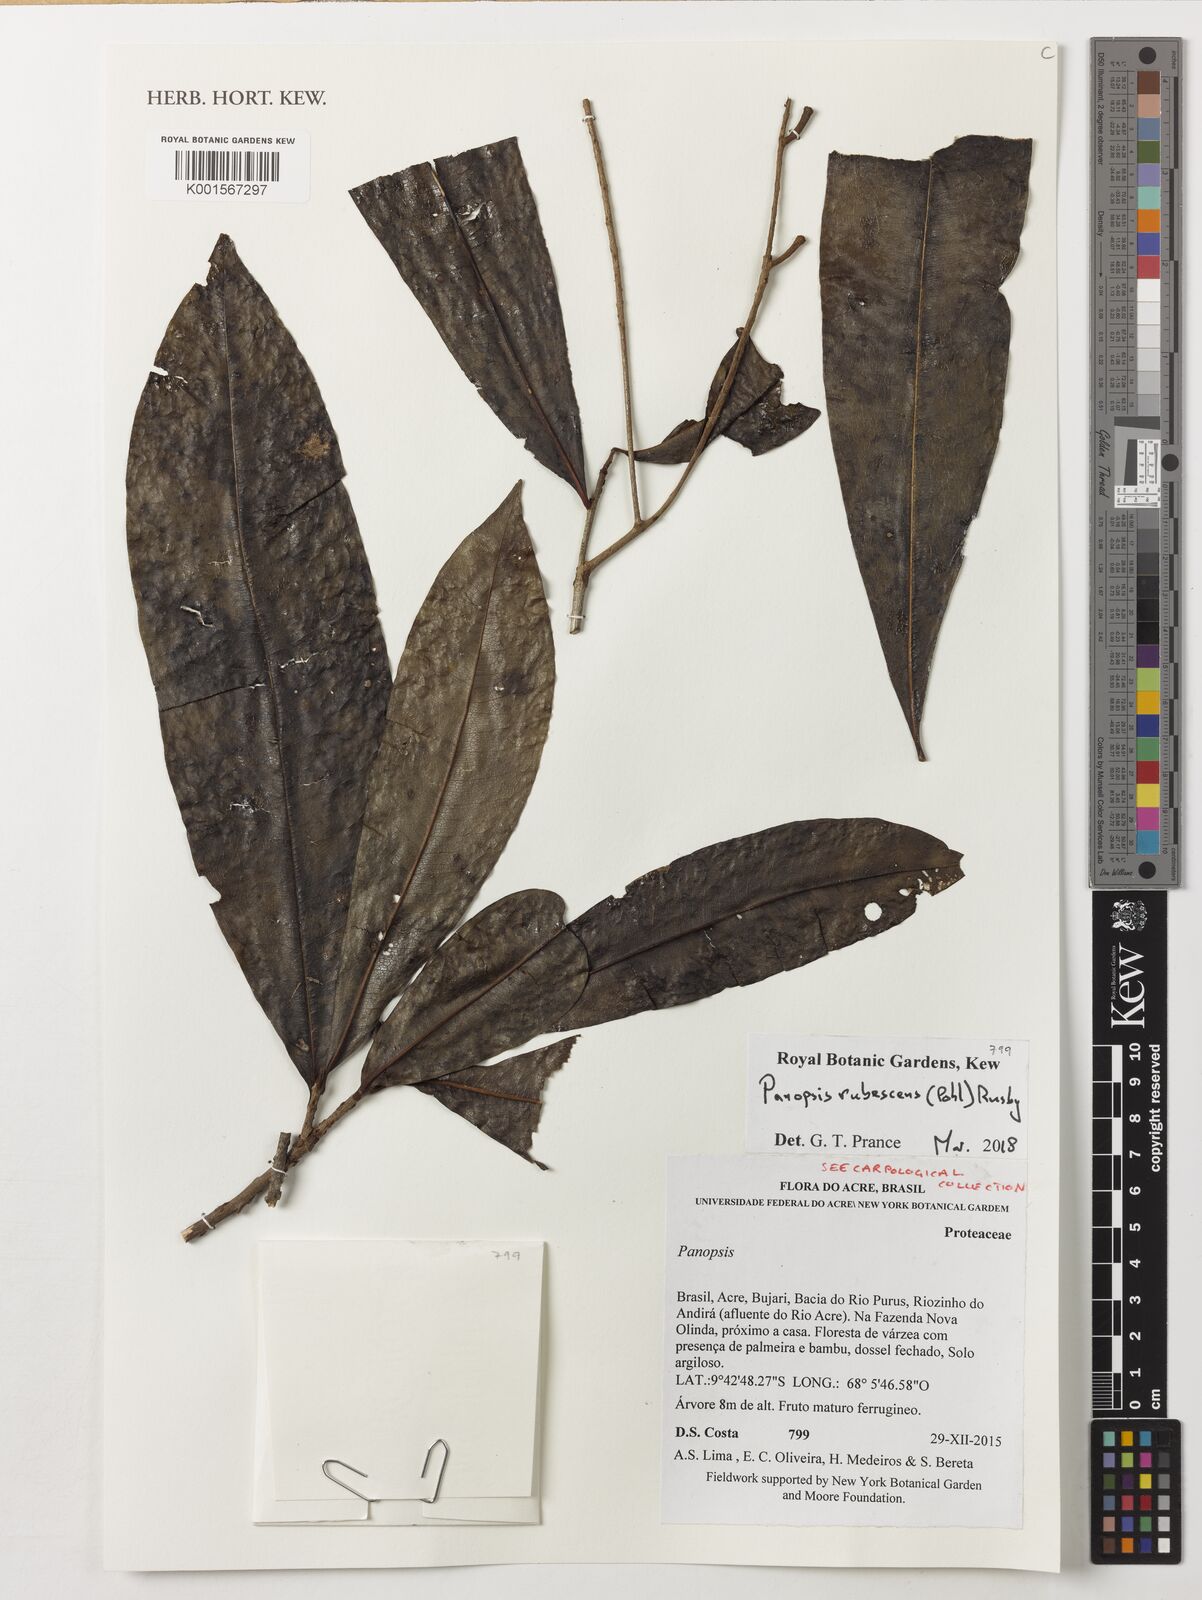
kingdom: Plantae
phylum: Tracheophyta
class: Magnoliopsida
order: Proteales
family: Proteaceae
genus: Panopsis
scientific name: Panopsis rubescens
